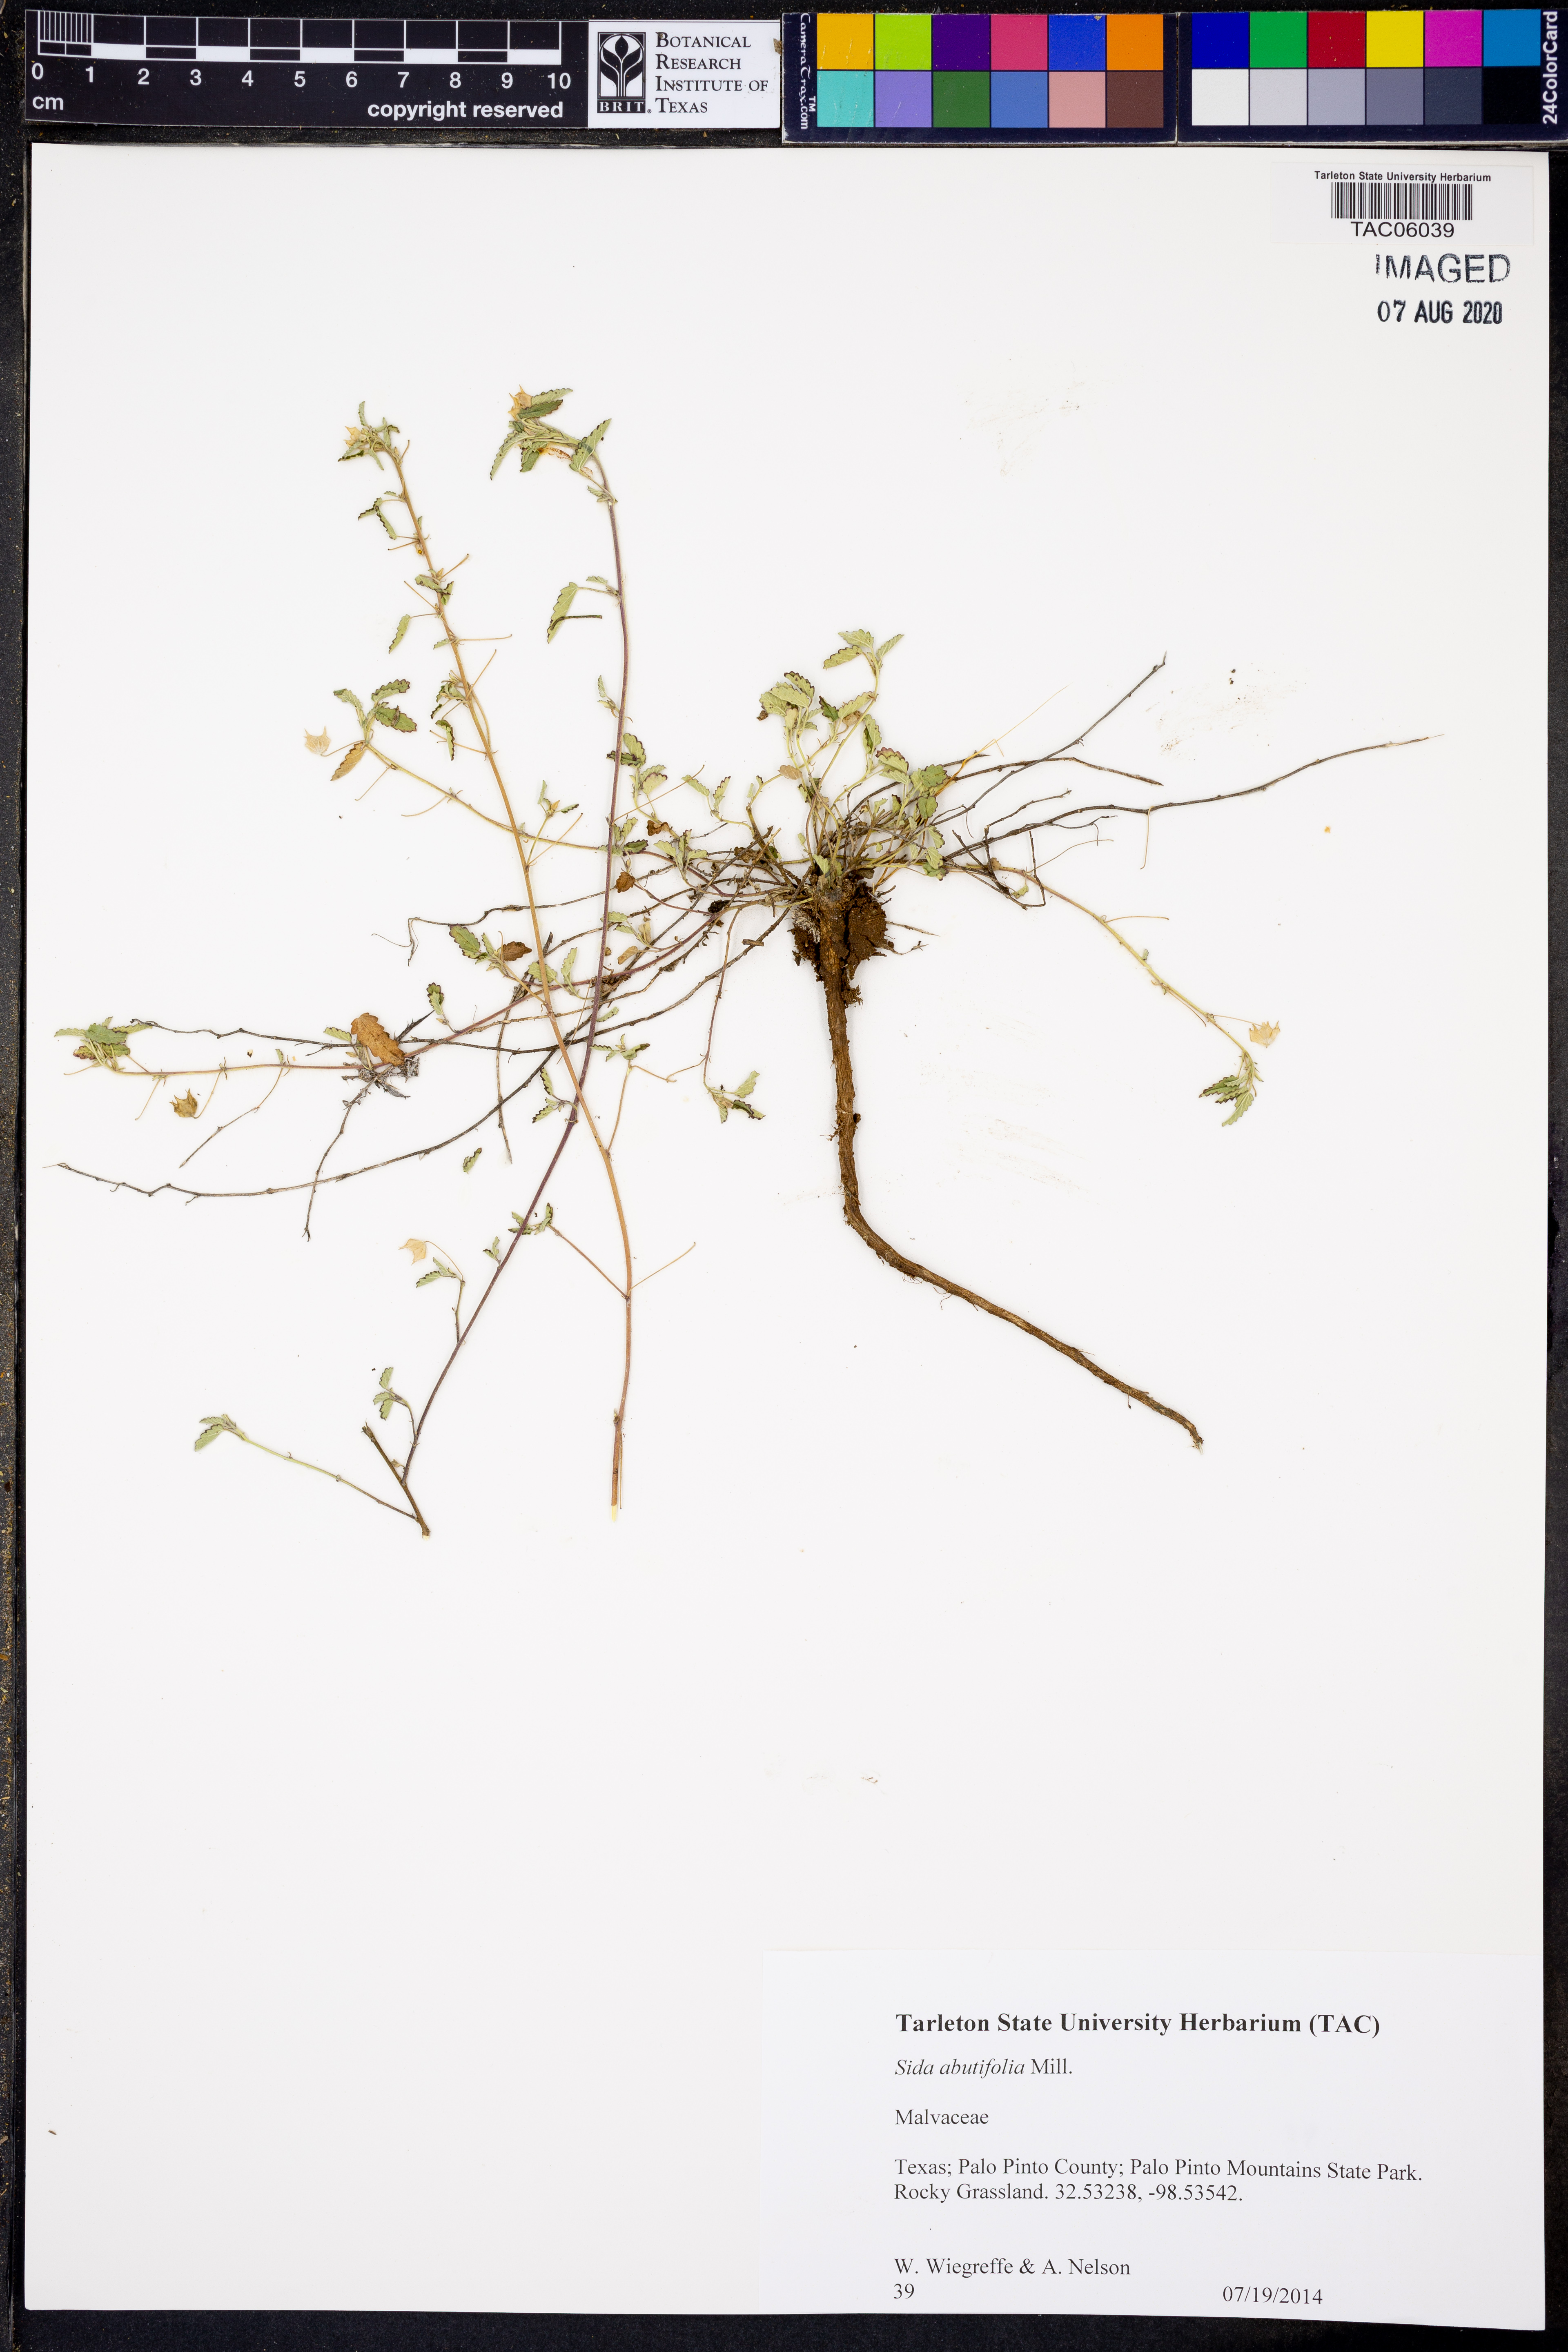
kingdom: Plantae
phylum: Tracheophyta
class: Magnoliopsida
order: Malvales
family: Malvaceae
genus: Sida
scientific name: Sida abutifolia
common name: Spreading fantails
